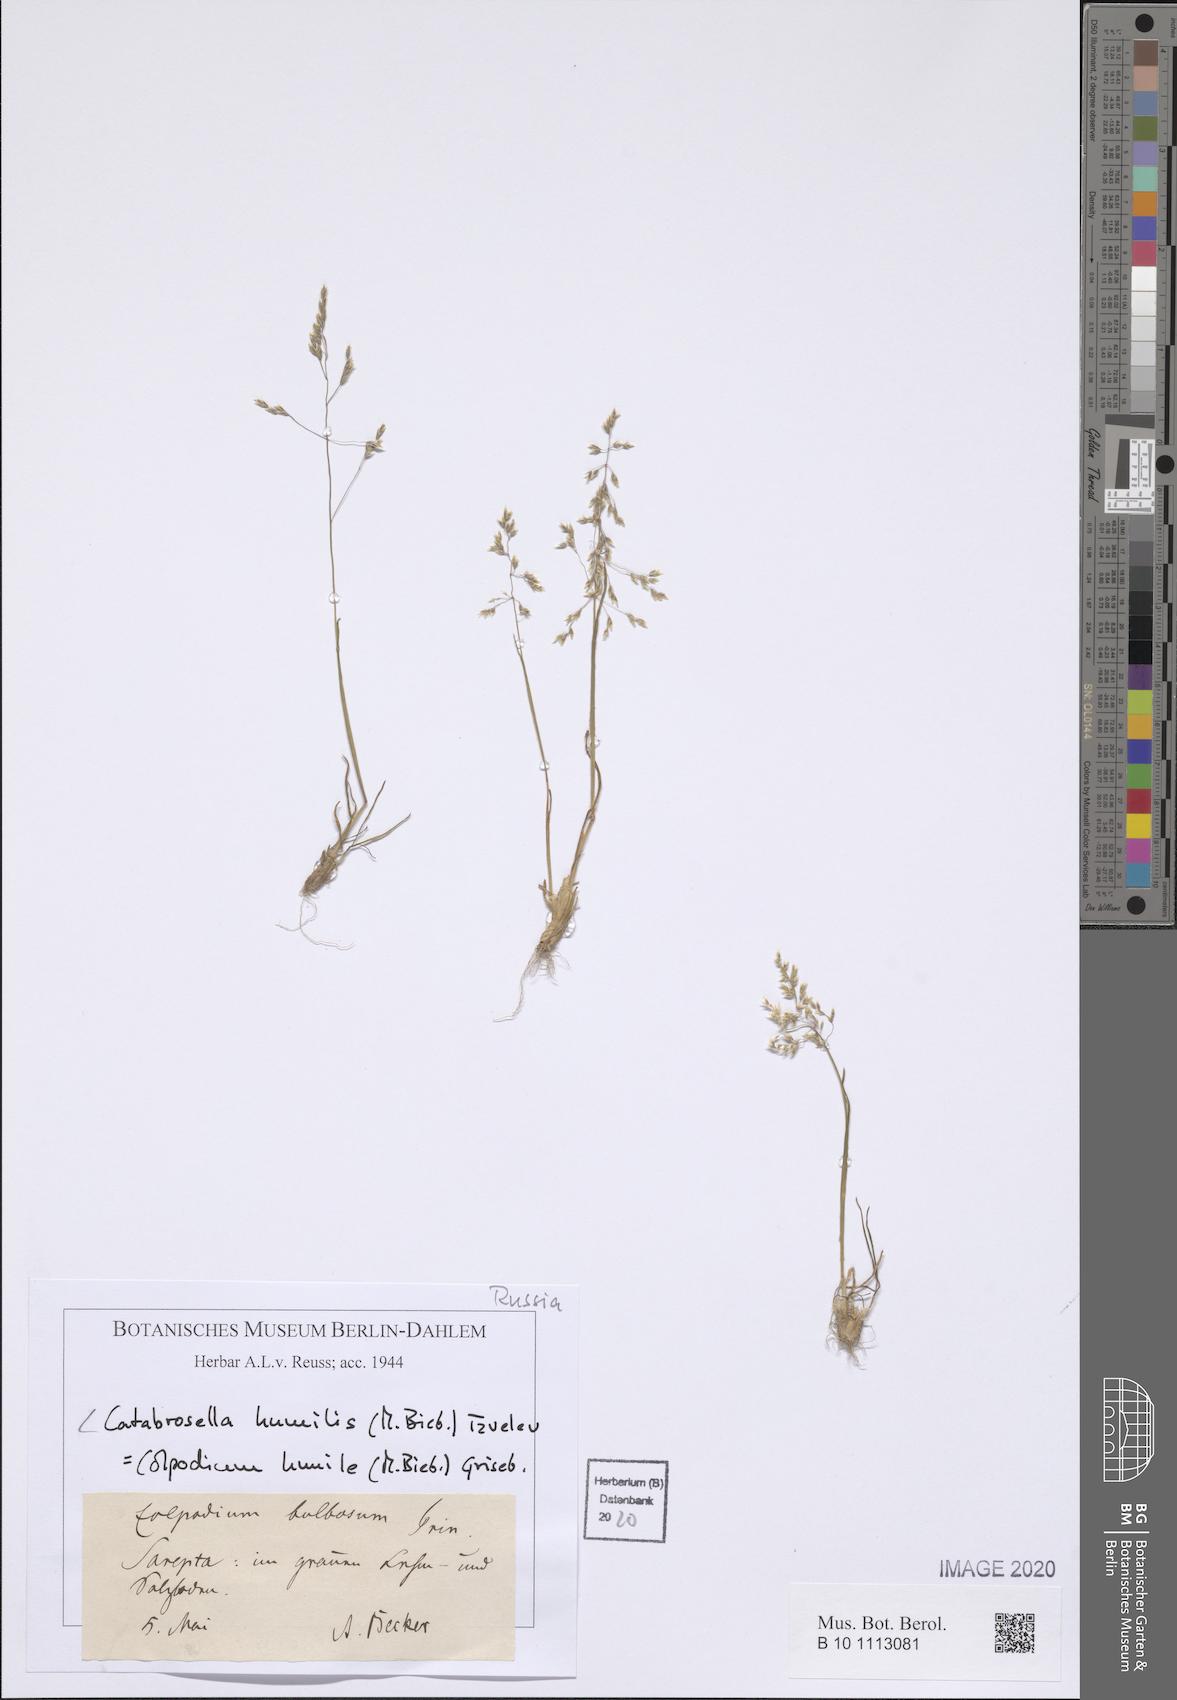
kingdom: Plantae
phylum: Tracheophyta
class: Liliopsida
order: Poales
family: Poaceae
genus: Catabrosella
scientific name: Catabrosella humilis
